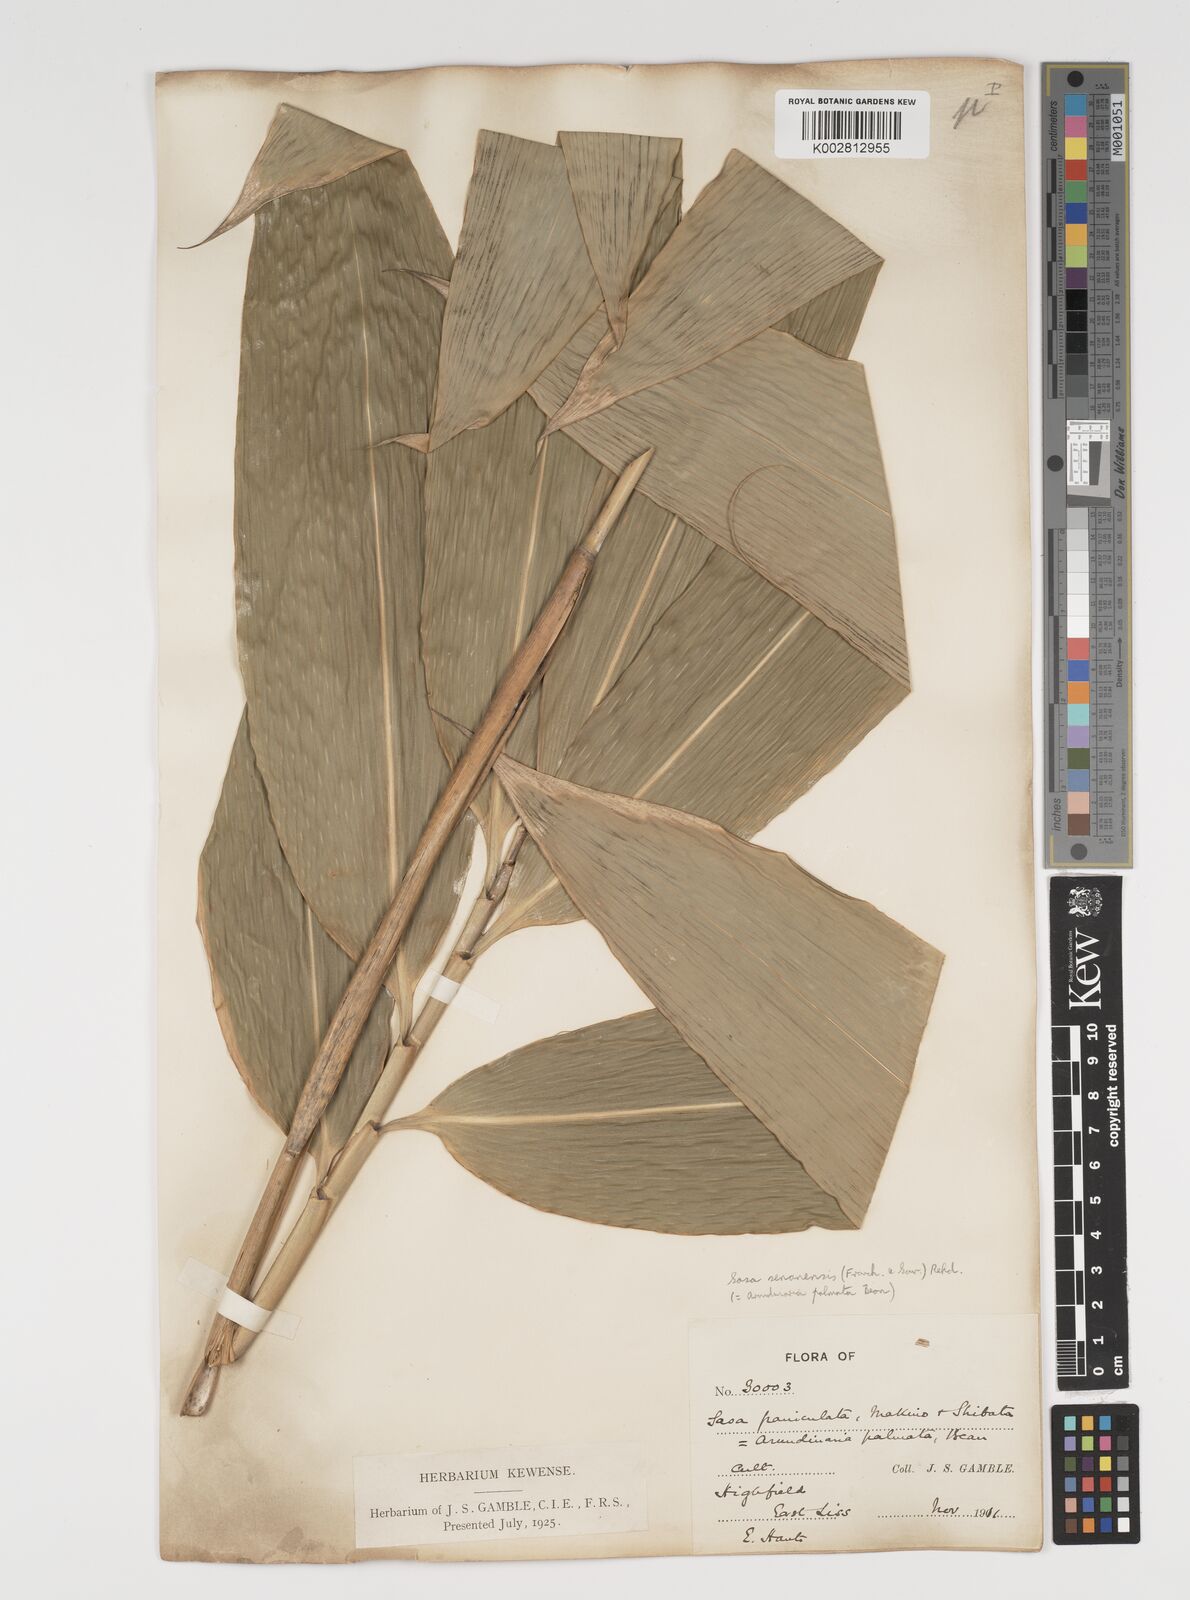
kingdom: Plantae
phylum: Tracheophyta
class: Liliopsida
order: Poales
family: Poaceae
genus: Sasa
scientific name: Sasa palmata
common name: Broad-leaved bamboo
